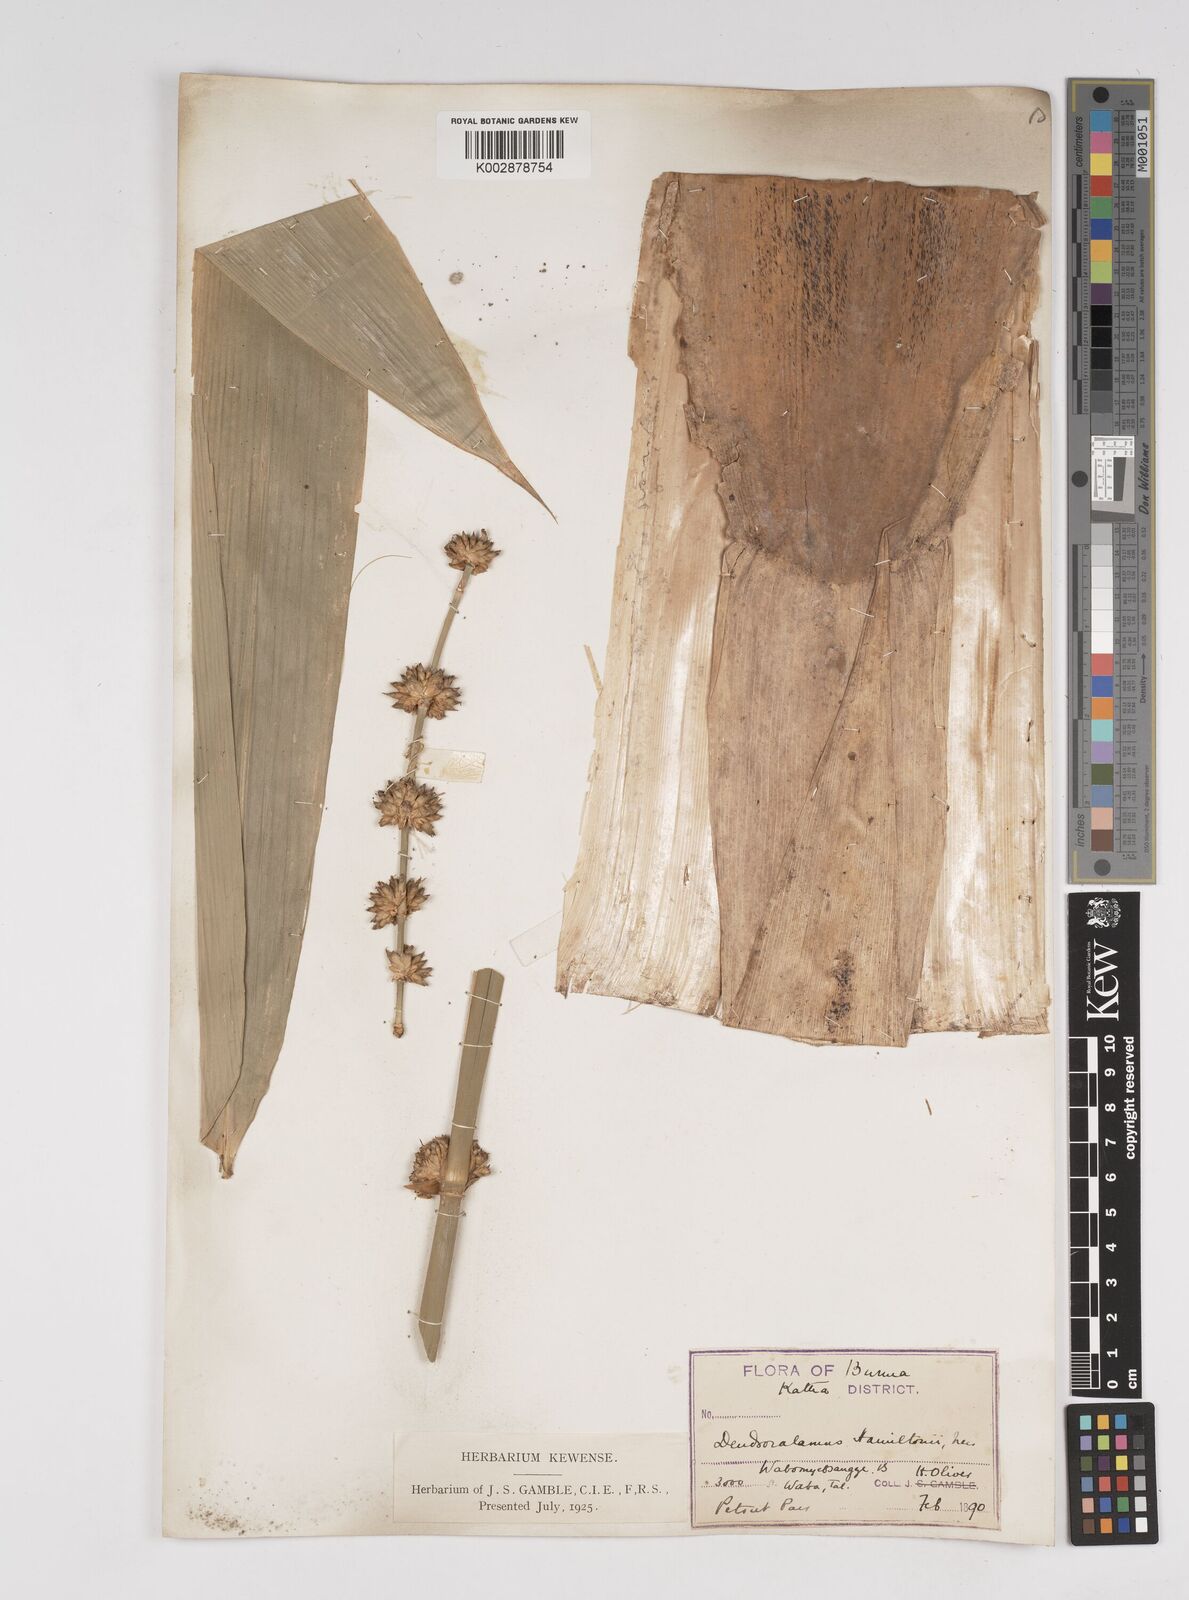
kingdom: Plantae
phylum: Tracheophyta
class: Liliopsida
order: Poales
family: Poaceae
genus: Dendrocalamus
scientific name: Dendrocalamus hamiltonii
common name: Tama bamboo
